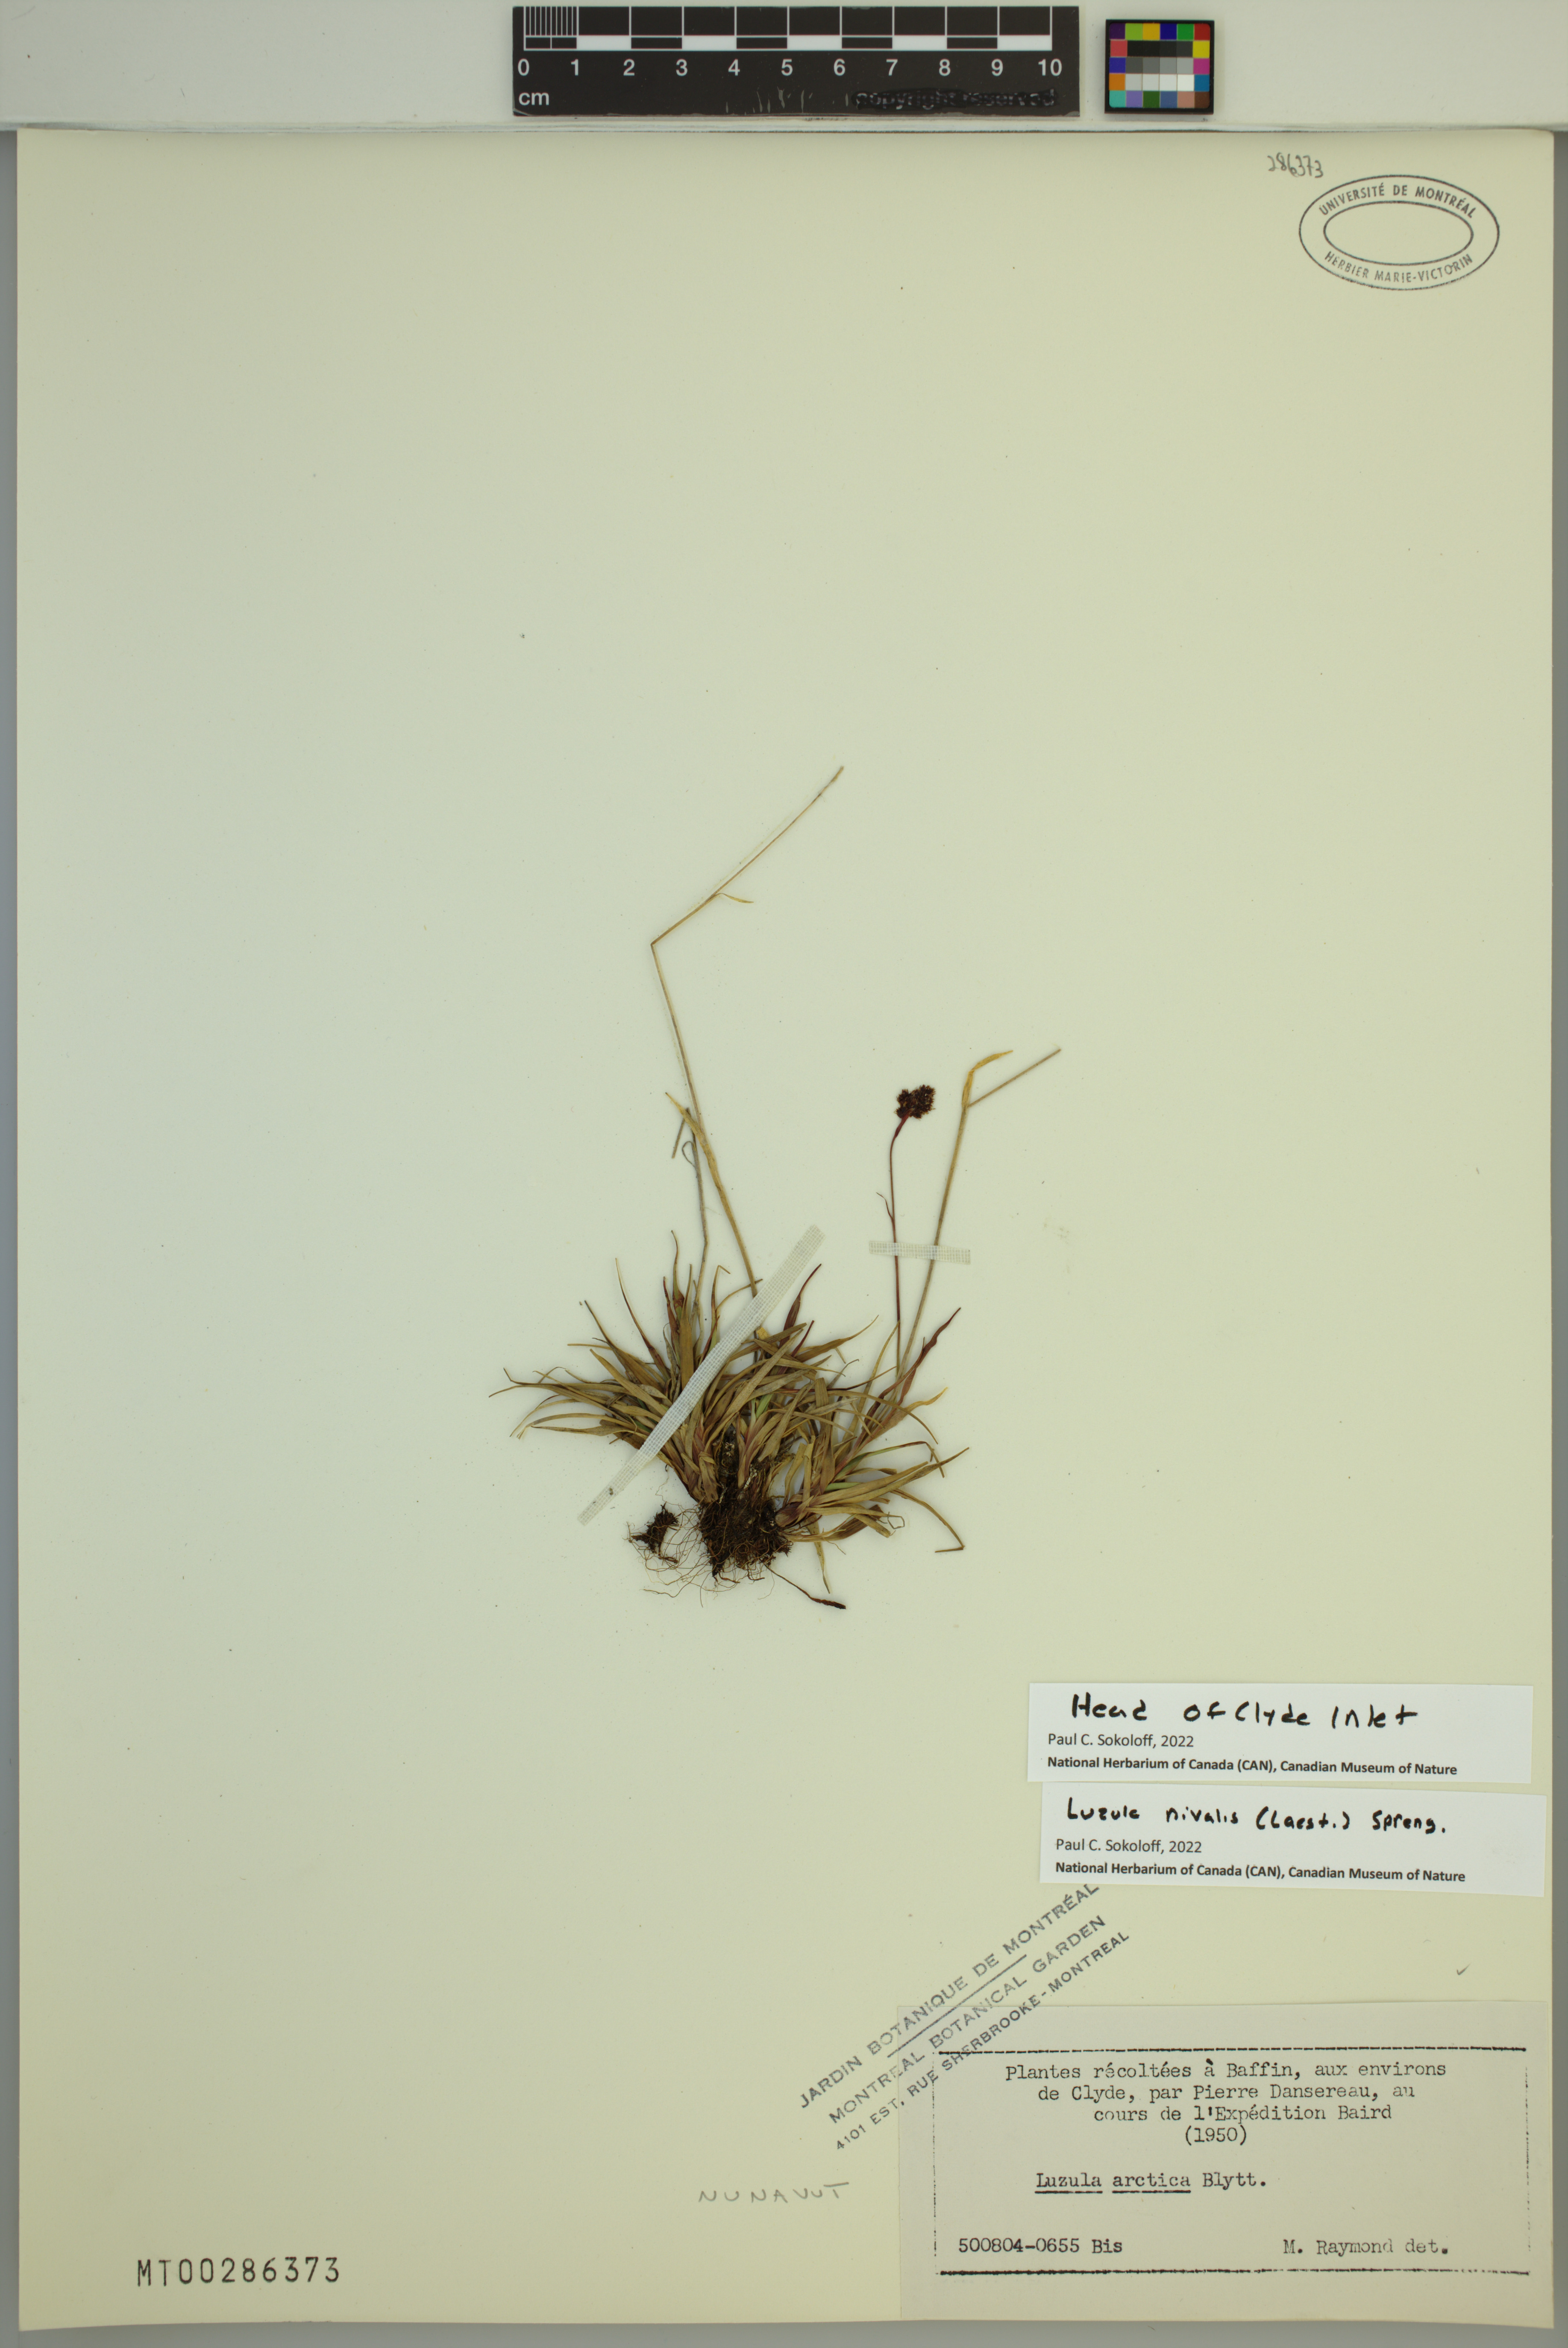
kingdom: Plantae
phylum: Tracheophyta
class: Liliopsida
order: Poales
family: Juncaceae
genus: Luzula
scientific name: Luzula nivalis
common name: Arctic woodrush
